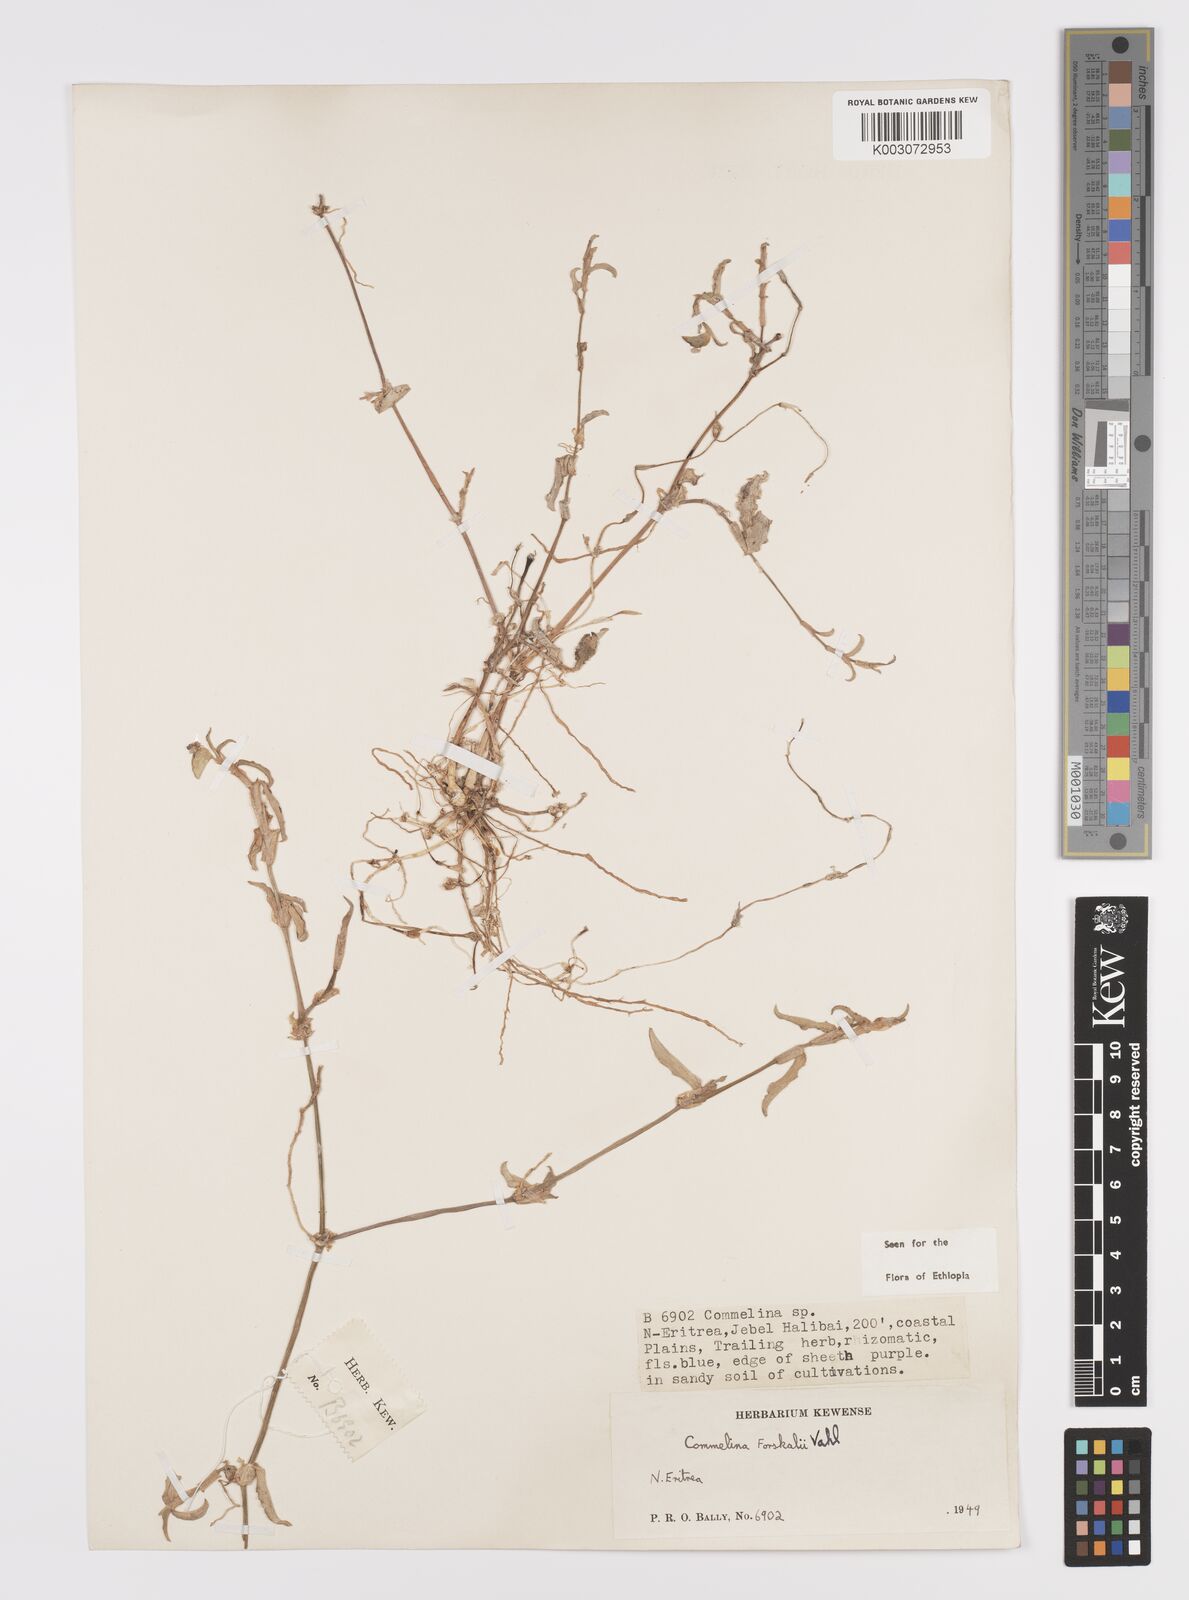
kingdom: Plantae
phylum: Tracheophyta
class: Liliopsida
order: Commelinales
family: Commelinaceae
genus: Commelina
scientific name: Commelina forskaolii
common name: Rat's ear
